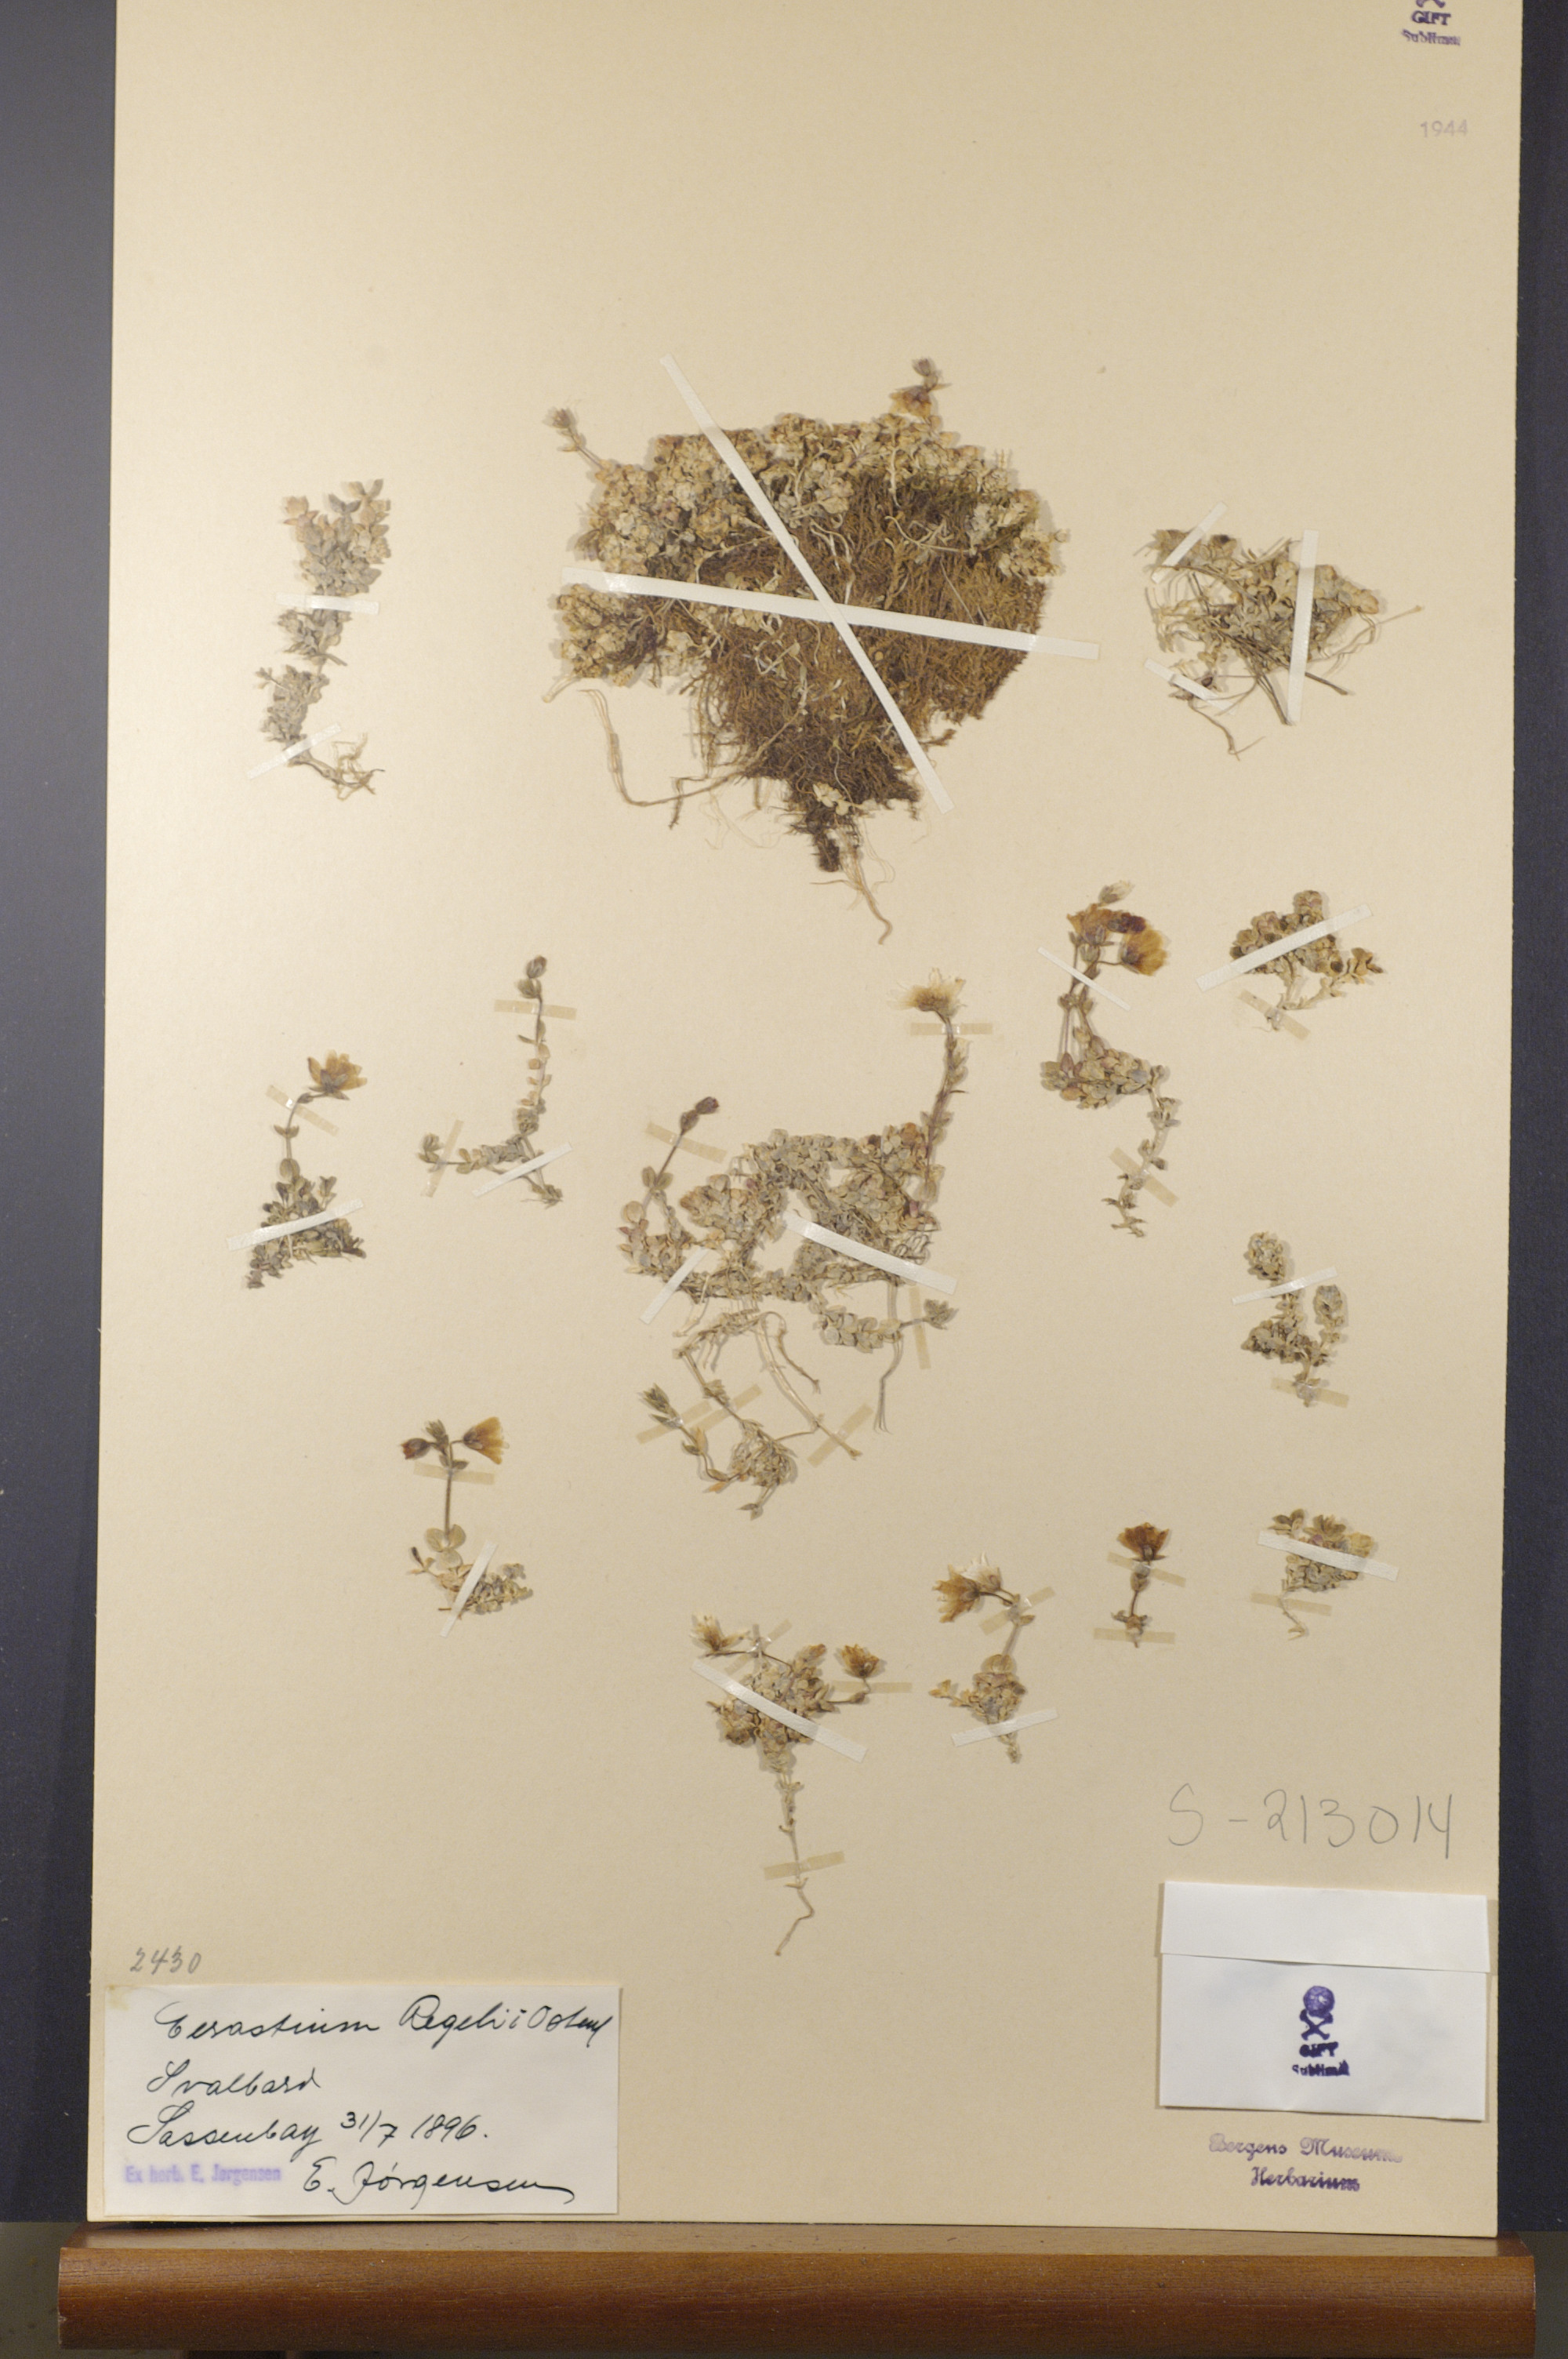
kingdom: Plantae
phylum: Tracheophyta
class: Magnoliopsida
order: Caryophyllales
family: Caryophyllaceae
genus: Cerastium
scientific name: Cerastium regelii
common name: Regel's chickweed
